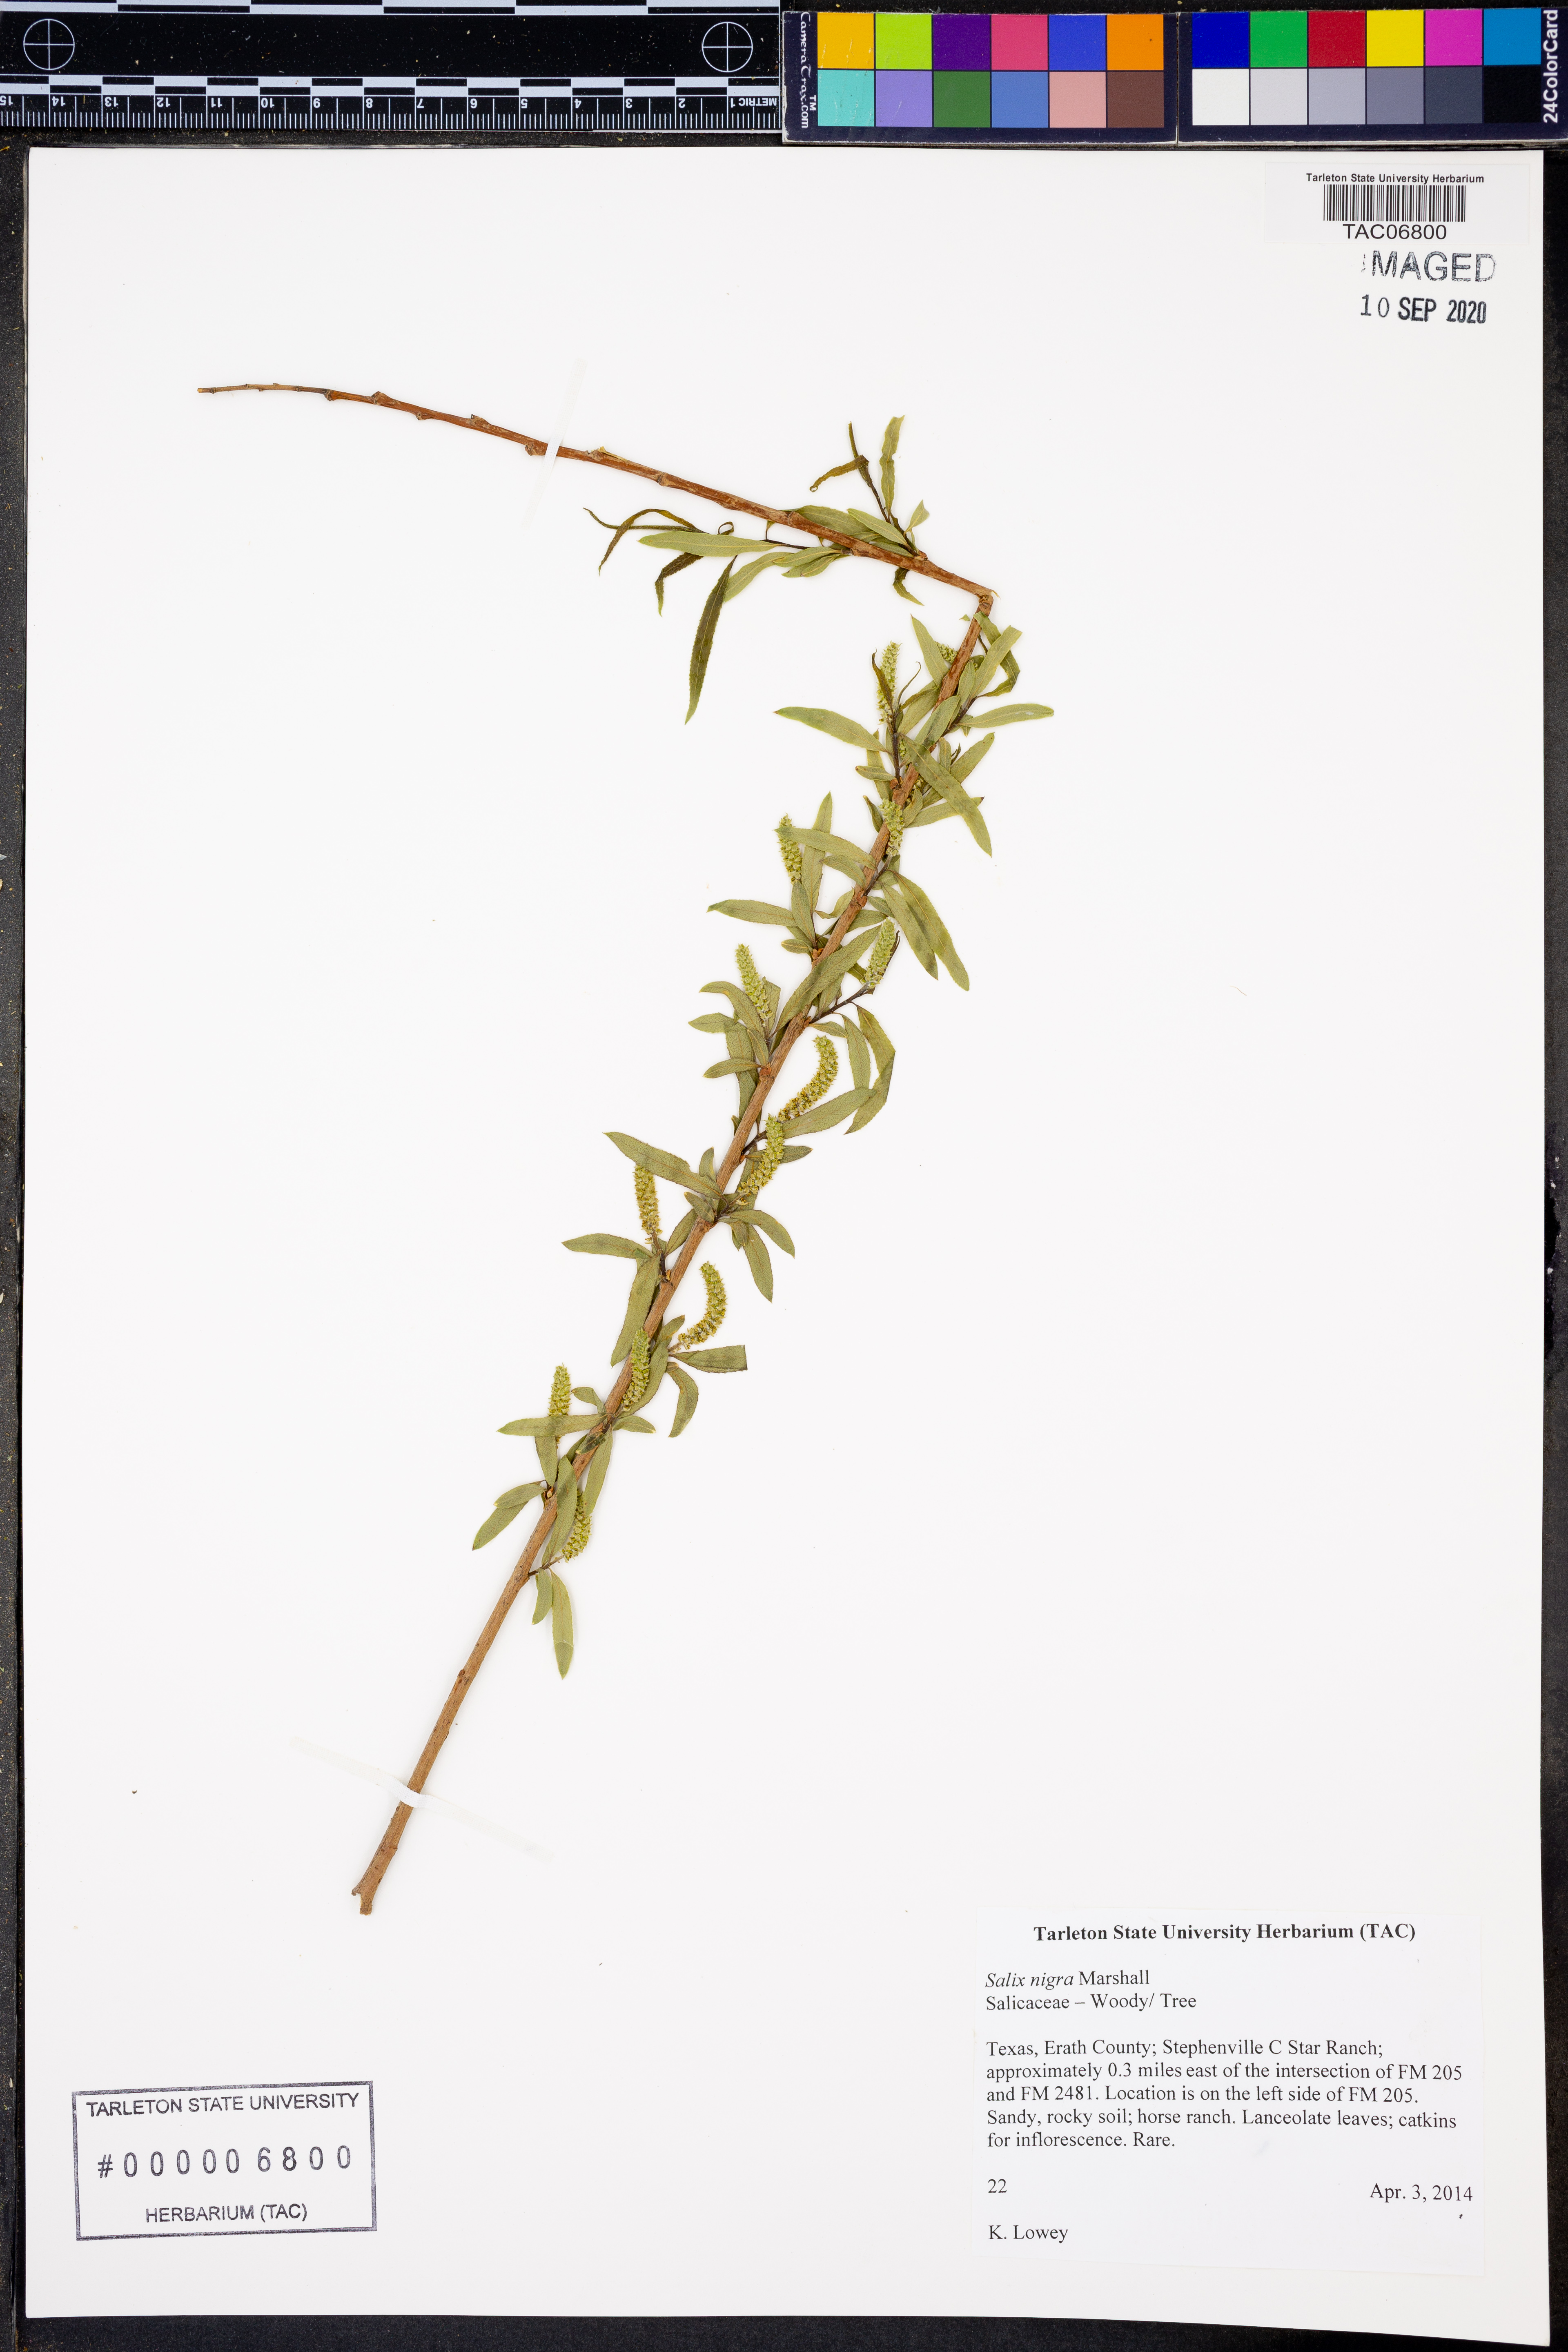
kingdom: Plantae
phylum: Tracheophyta
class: Magnoliopsida
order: Malpighiales
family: Salicaceae
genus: Salix
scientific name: Salix nigra
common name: Black willow
